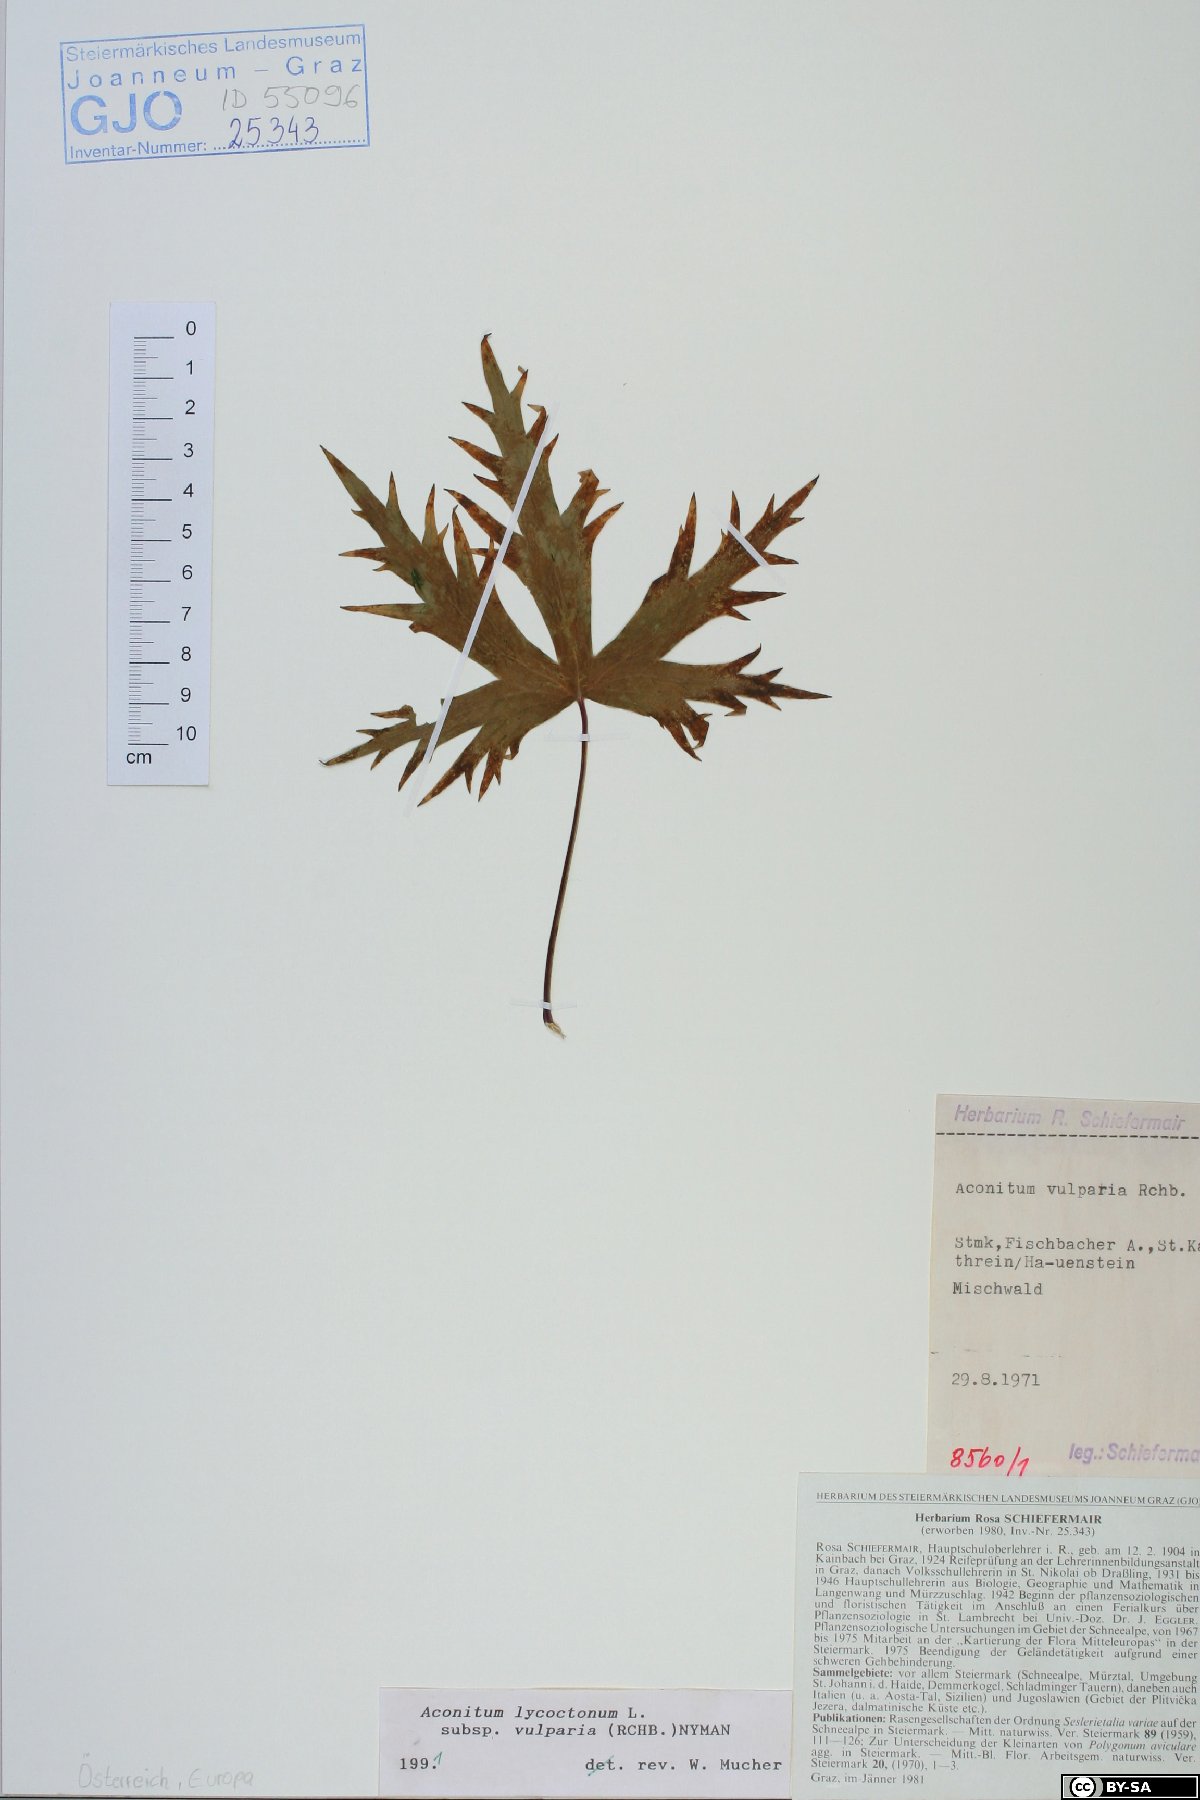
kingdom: Plantae
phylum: Tracheophyta
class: Magnoliopsida
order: Ranunculales
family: Ranunculaceae
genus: Aconitum
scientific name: Aconitum lycoctonum
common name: Wolf's-bane
